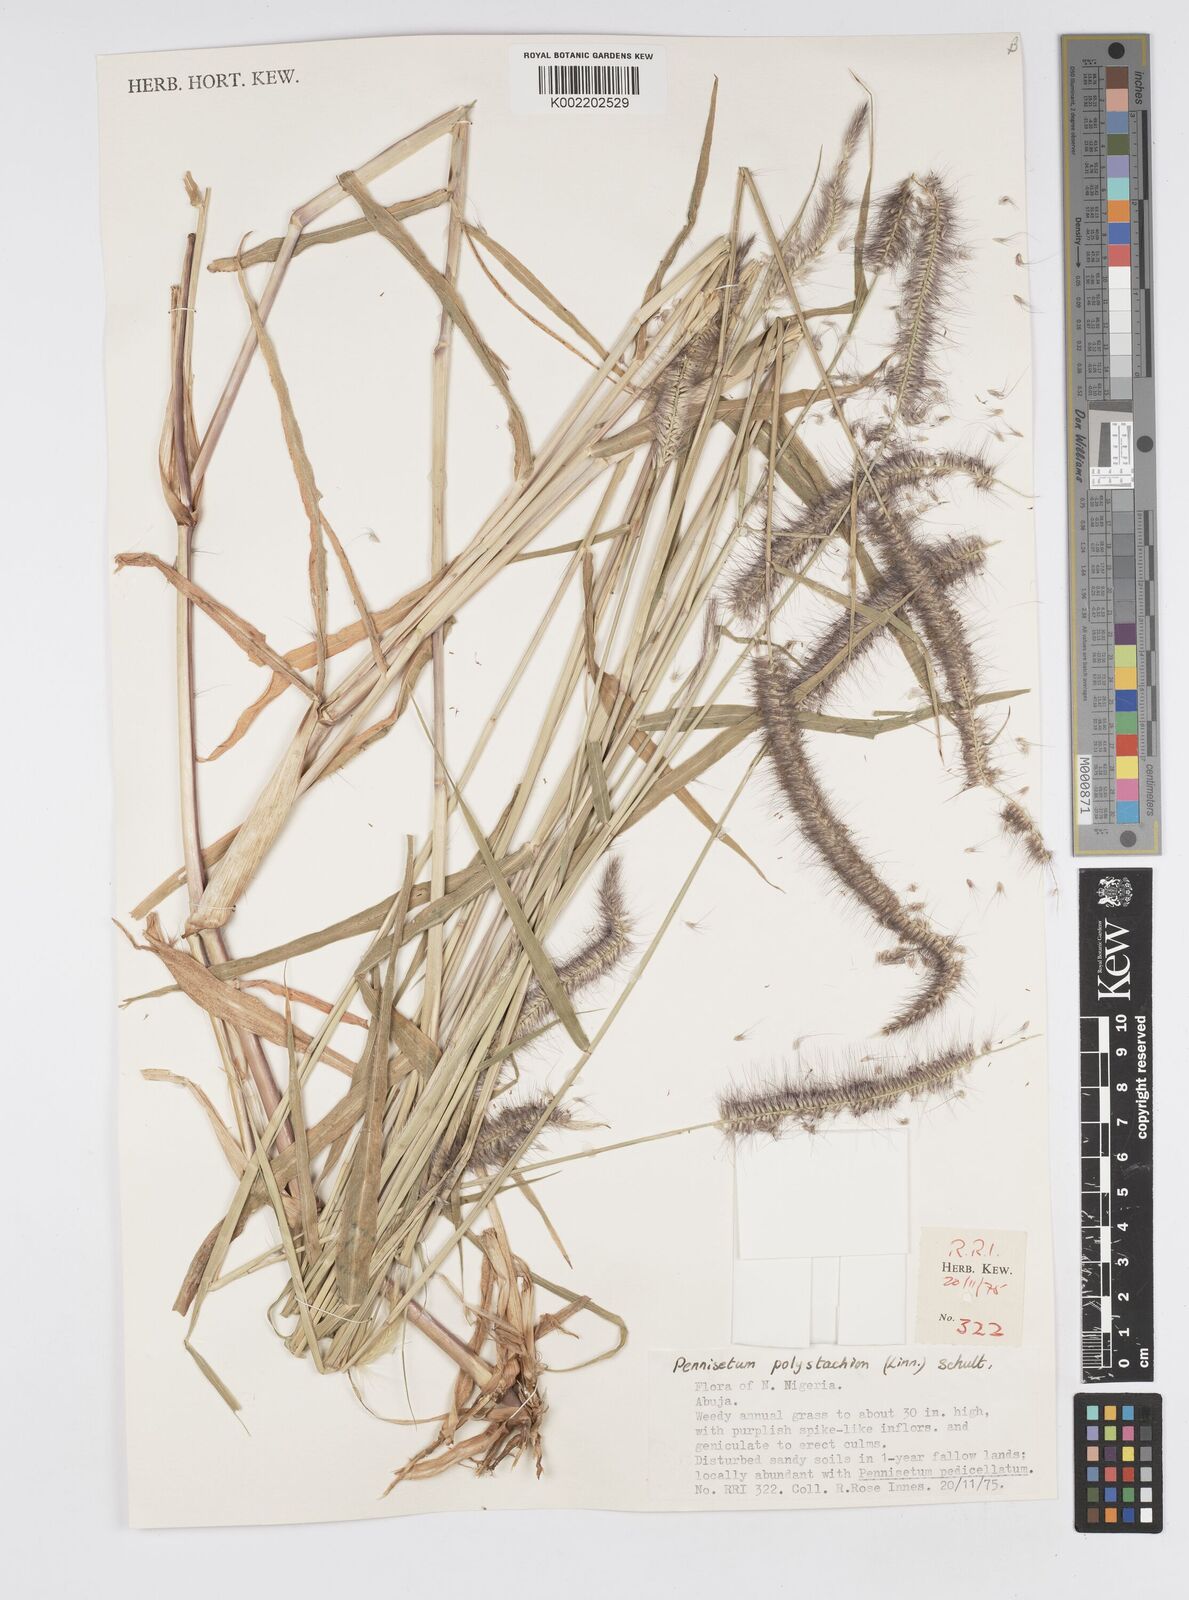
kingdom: Plantae
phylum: Tracheophyta
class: Liliopsida
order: Poales
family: Poaceae
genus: Setaria
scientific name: Setaria parviflora
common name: Knotroot bristle-grass
